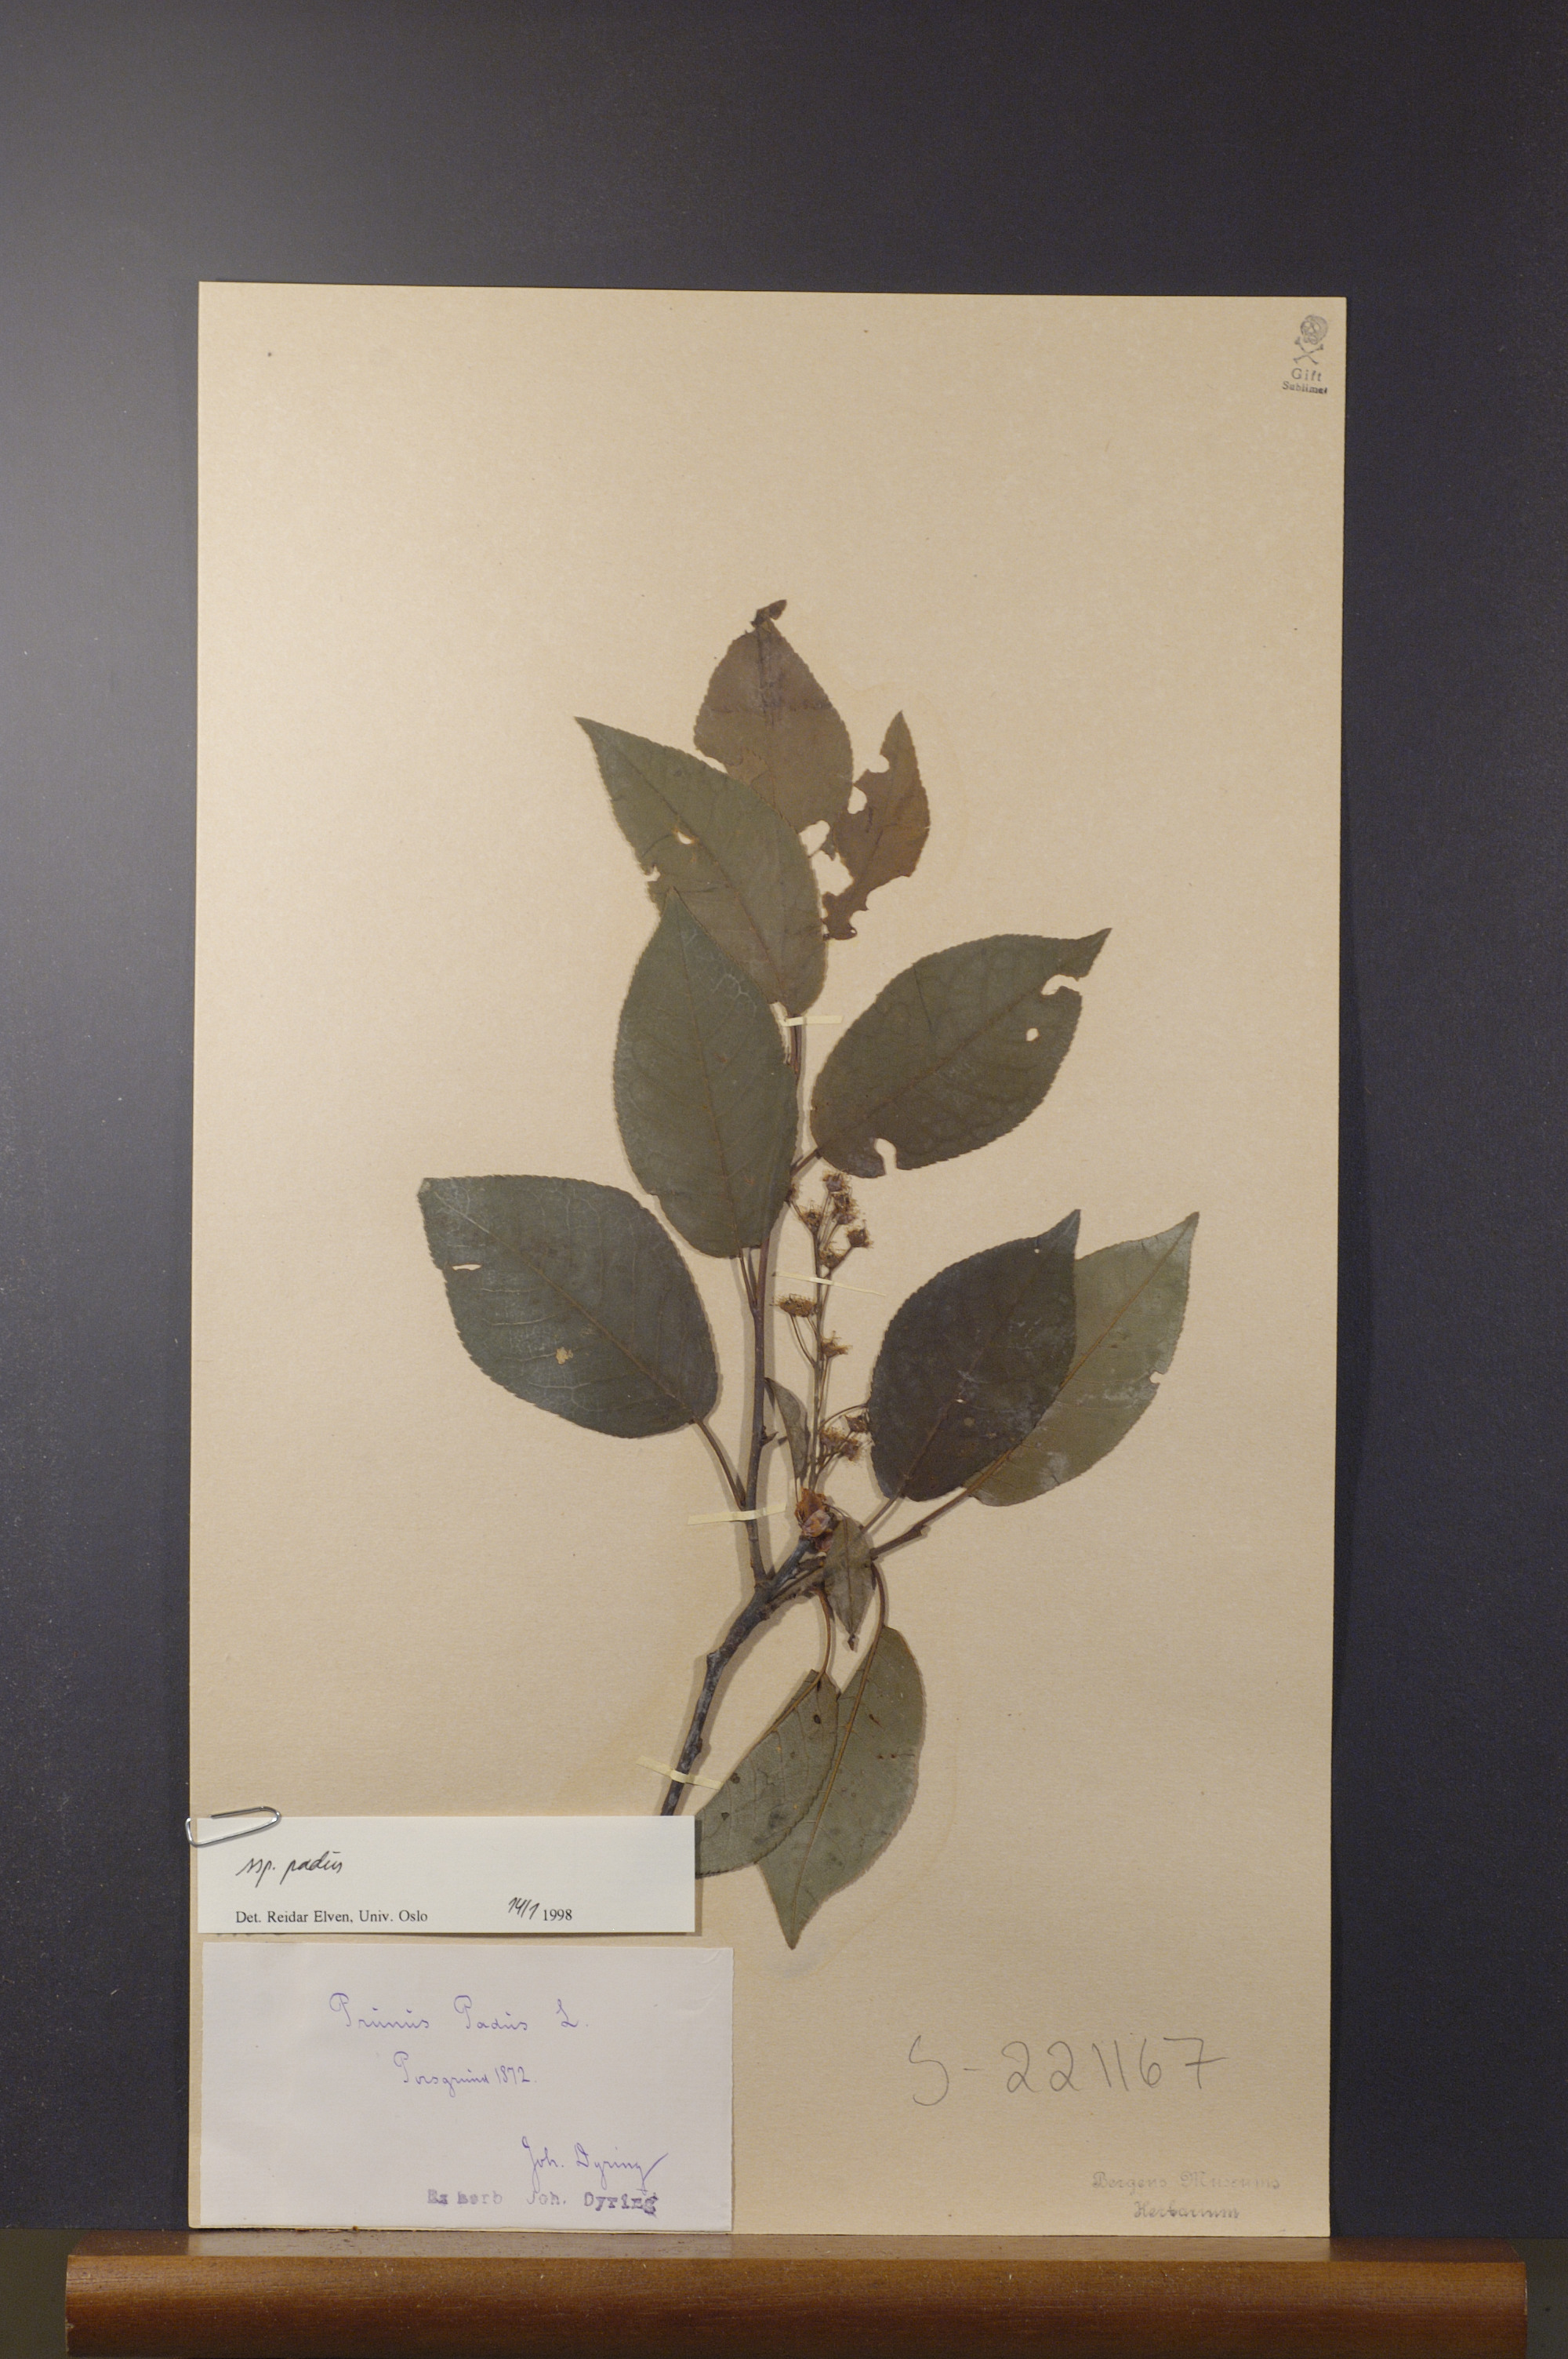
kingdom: Plantae
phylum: Tracheophyta
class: Magnoliopsida
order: Rosales
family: Rosaceae
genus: Prunus
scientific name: Prunus padus
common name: Bird cherry
